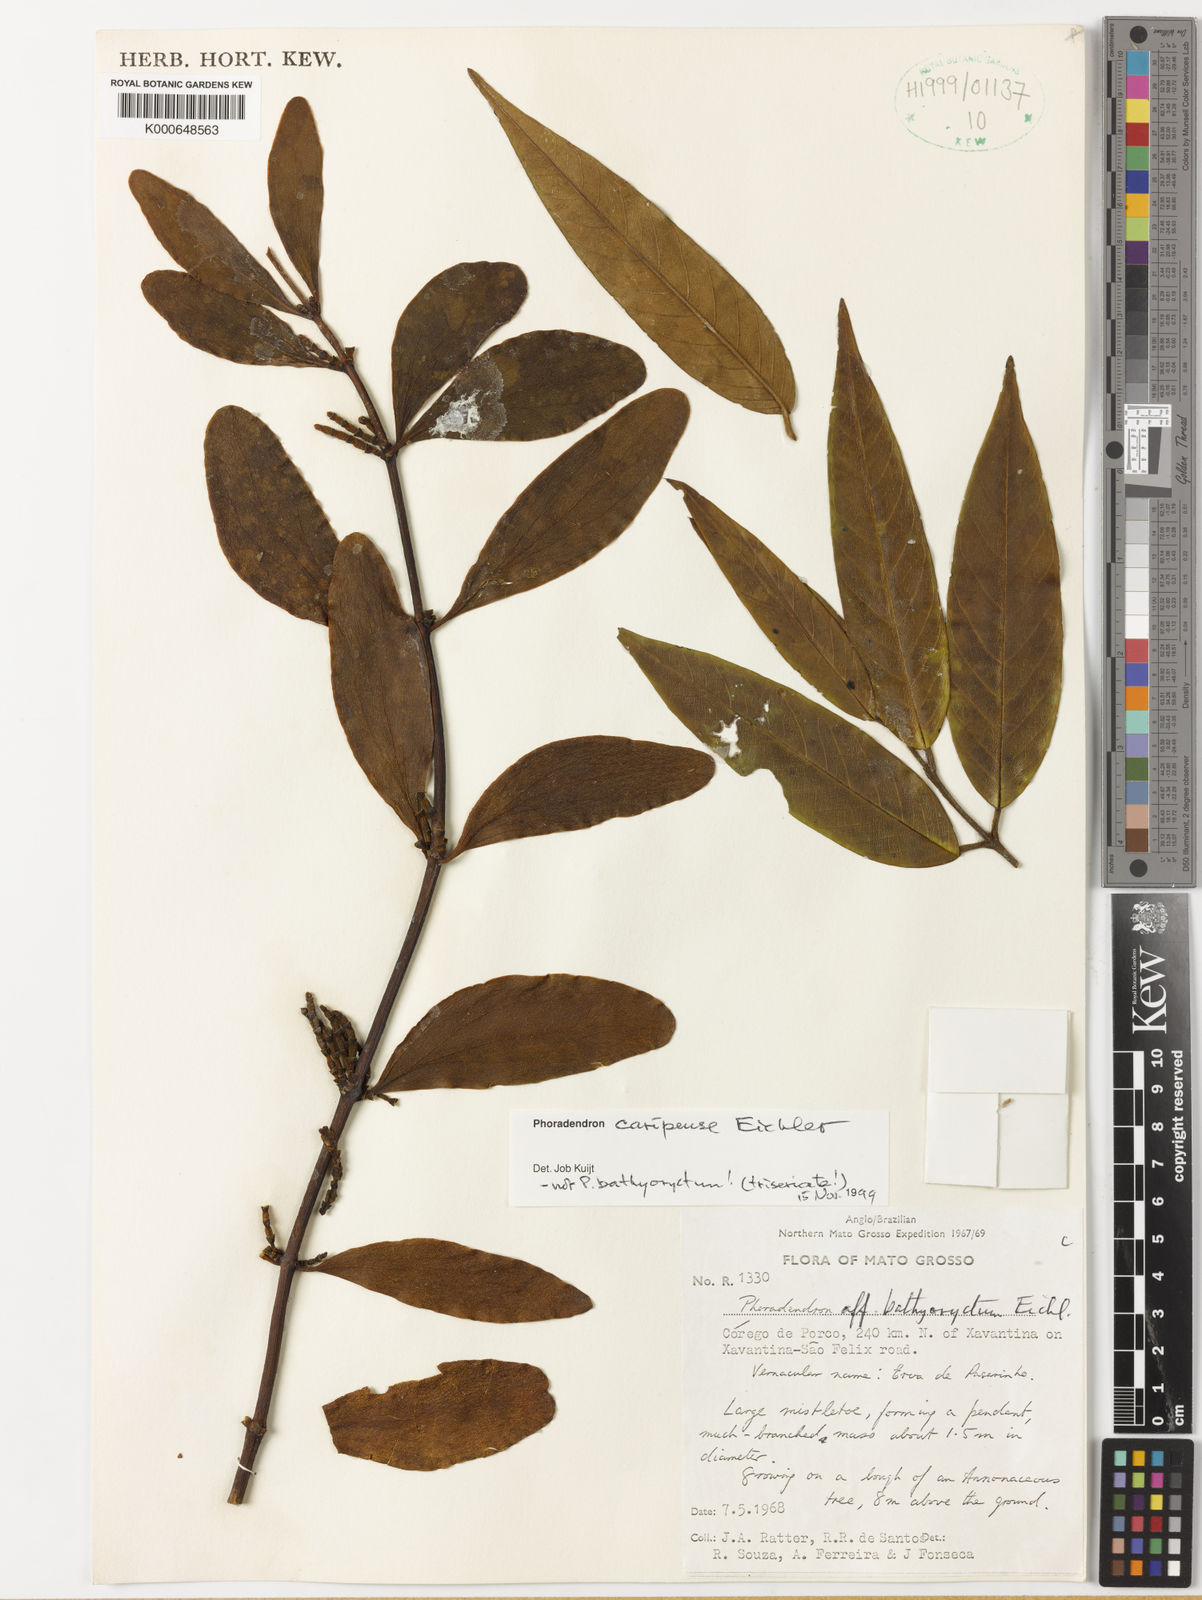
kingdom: Plantae
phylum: Tracheophyta
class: Magnoliopsida
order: Santalales
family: Viscaceae
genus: Phoradendron
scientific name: Phoradendron caripense
